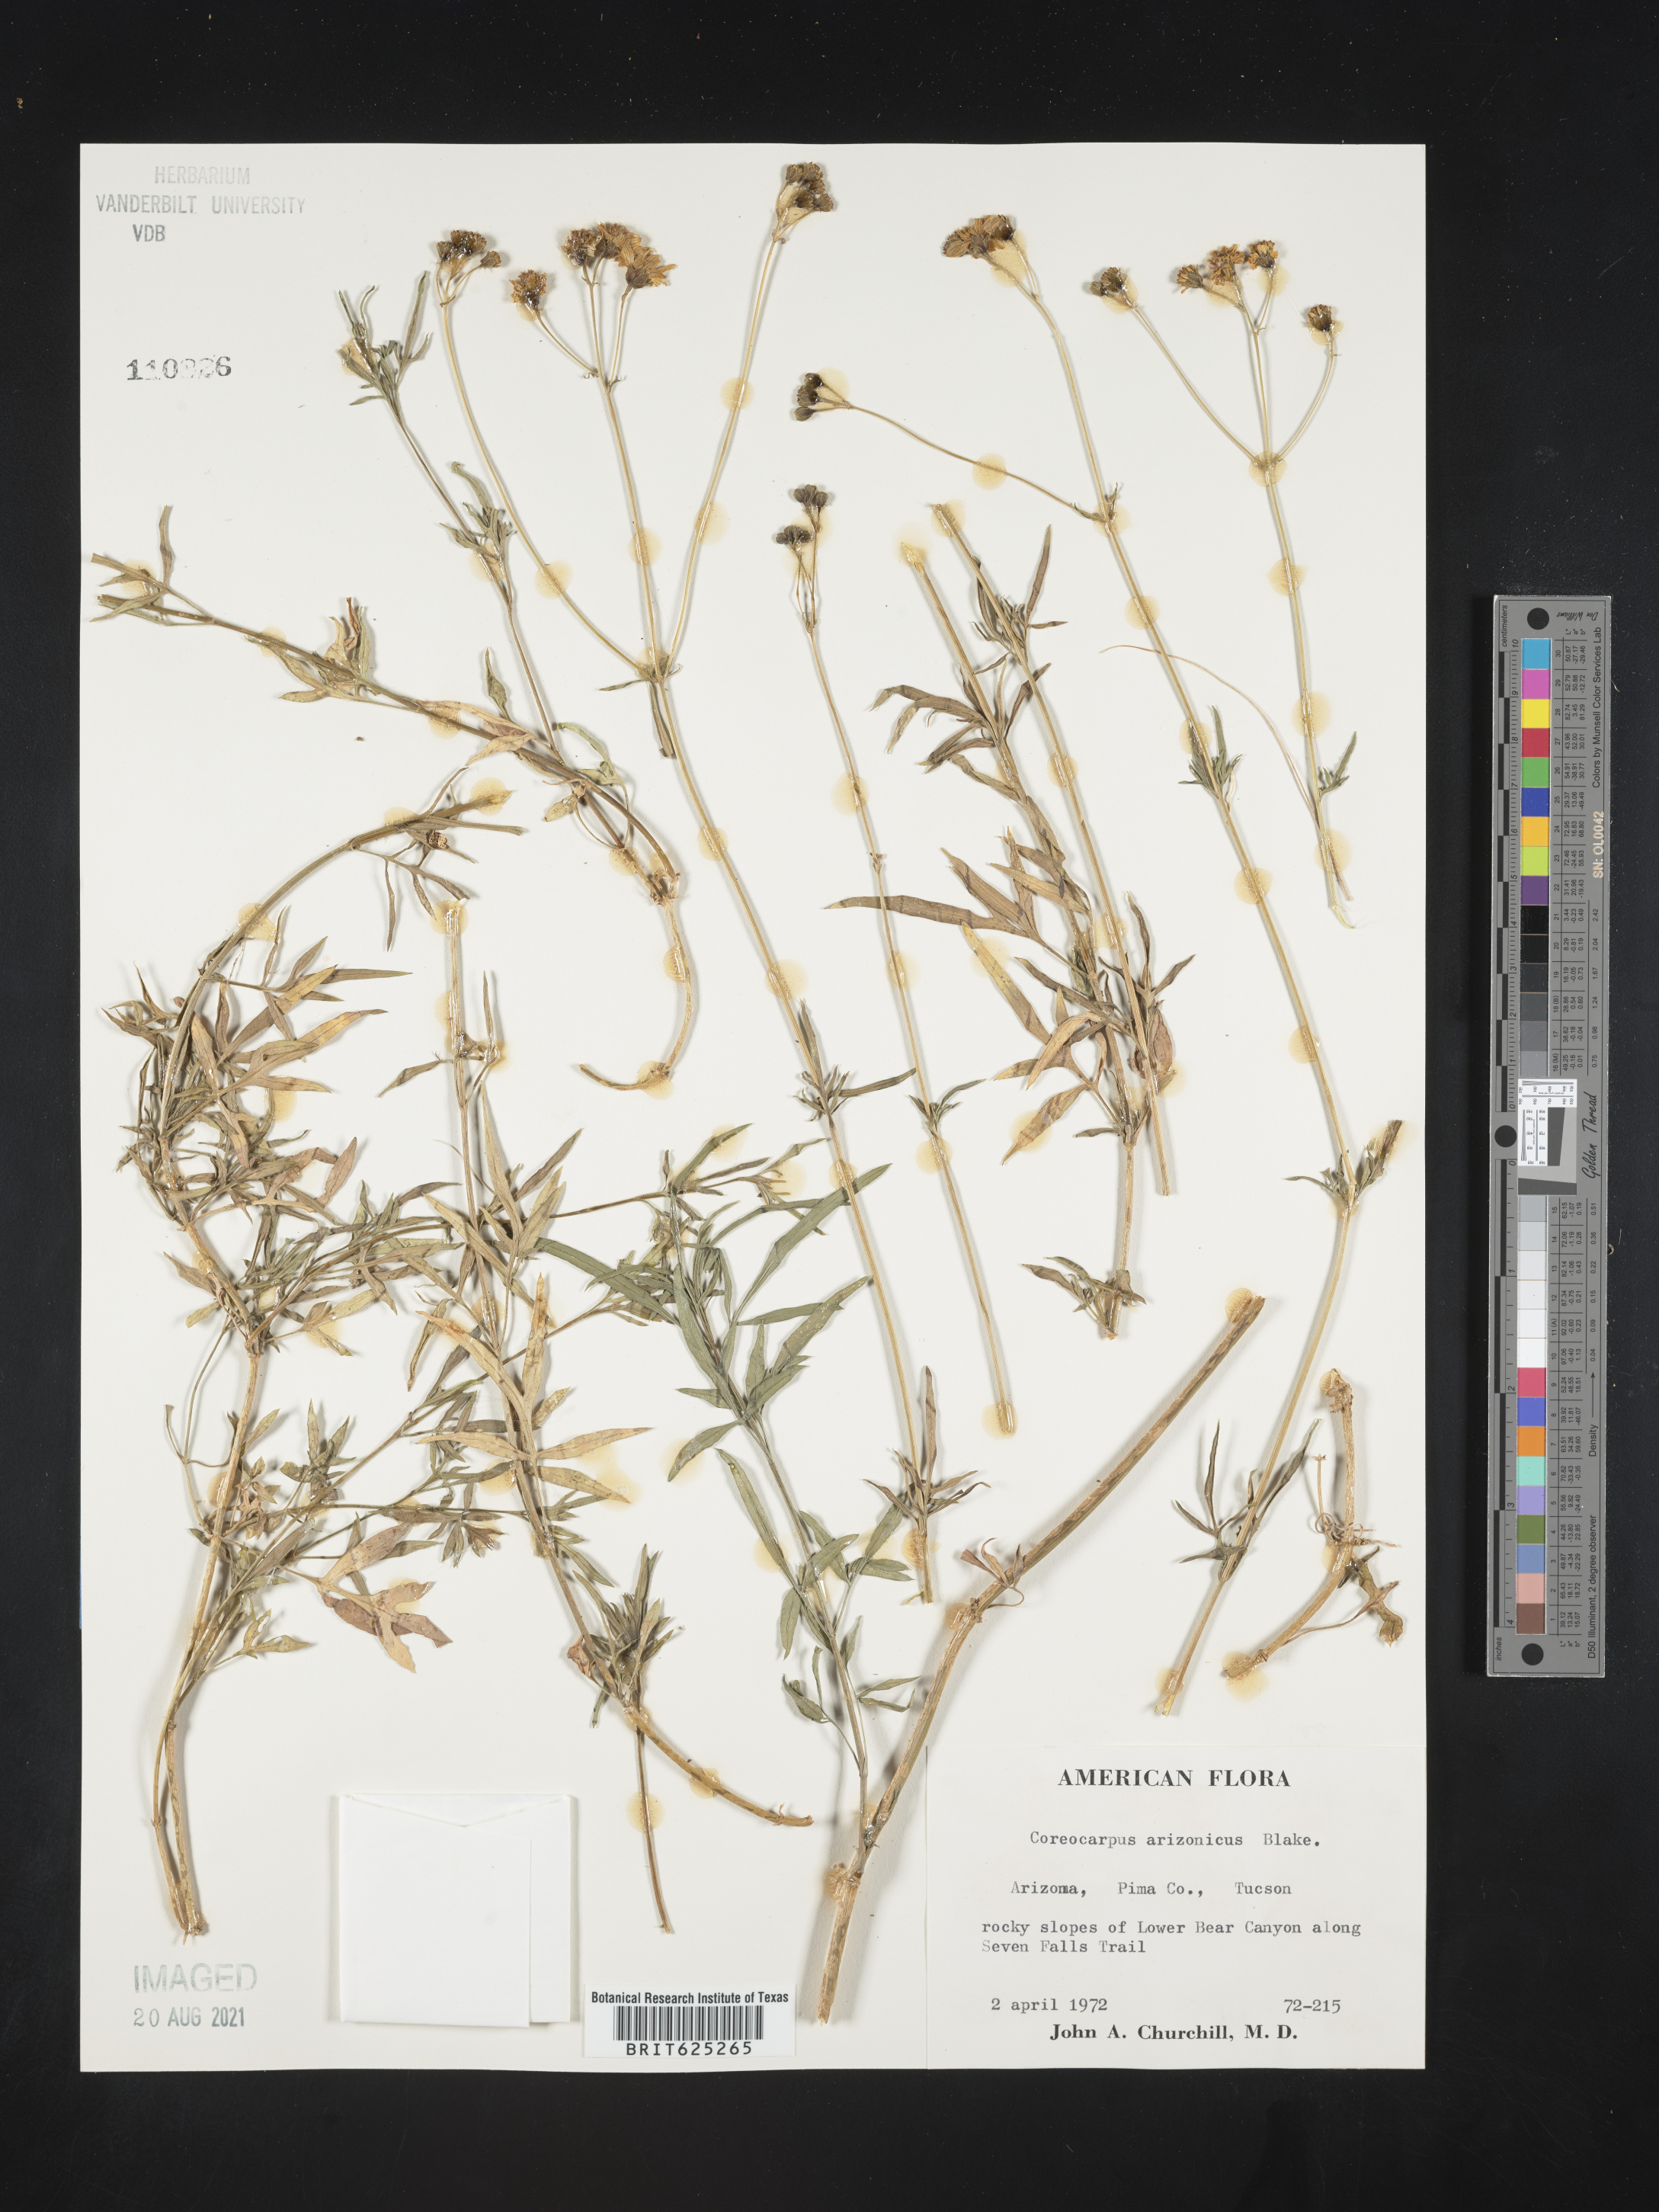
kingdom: Plantae
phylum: Tracheophyta
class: Magnoliopsida
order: Asterales
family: Asteraceae
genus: Coreocarpus
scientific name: Coreocarpus
